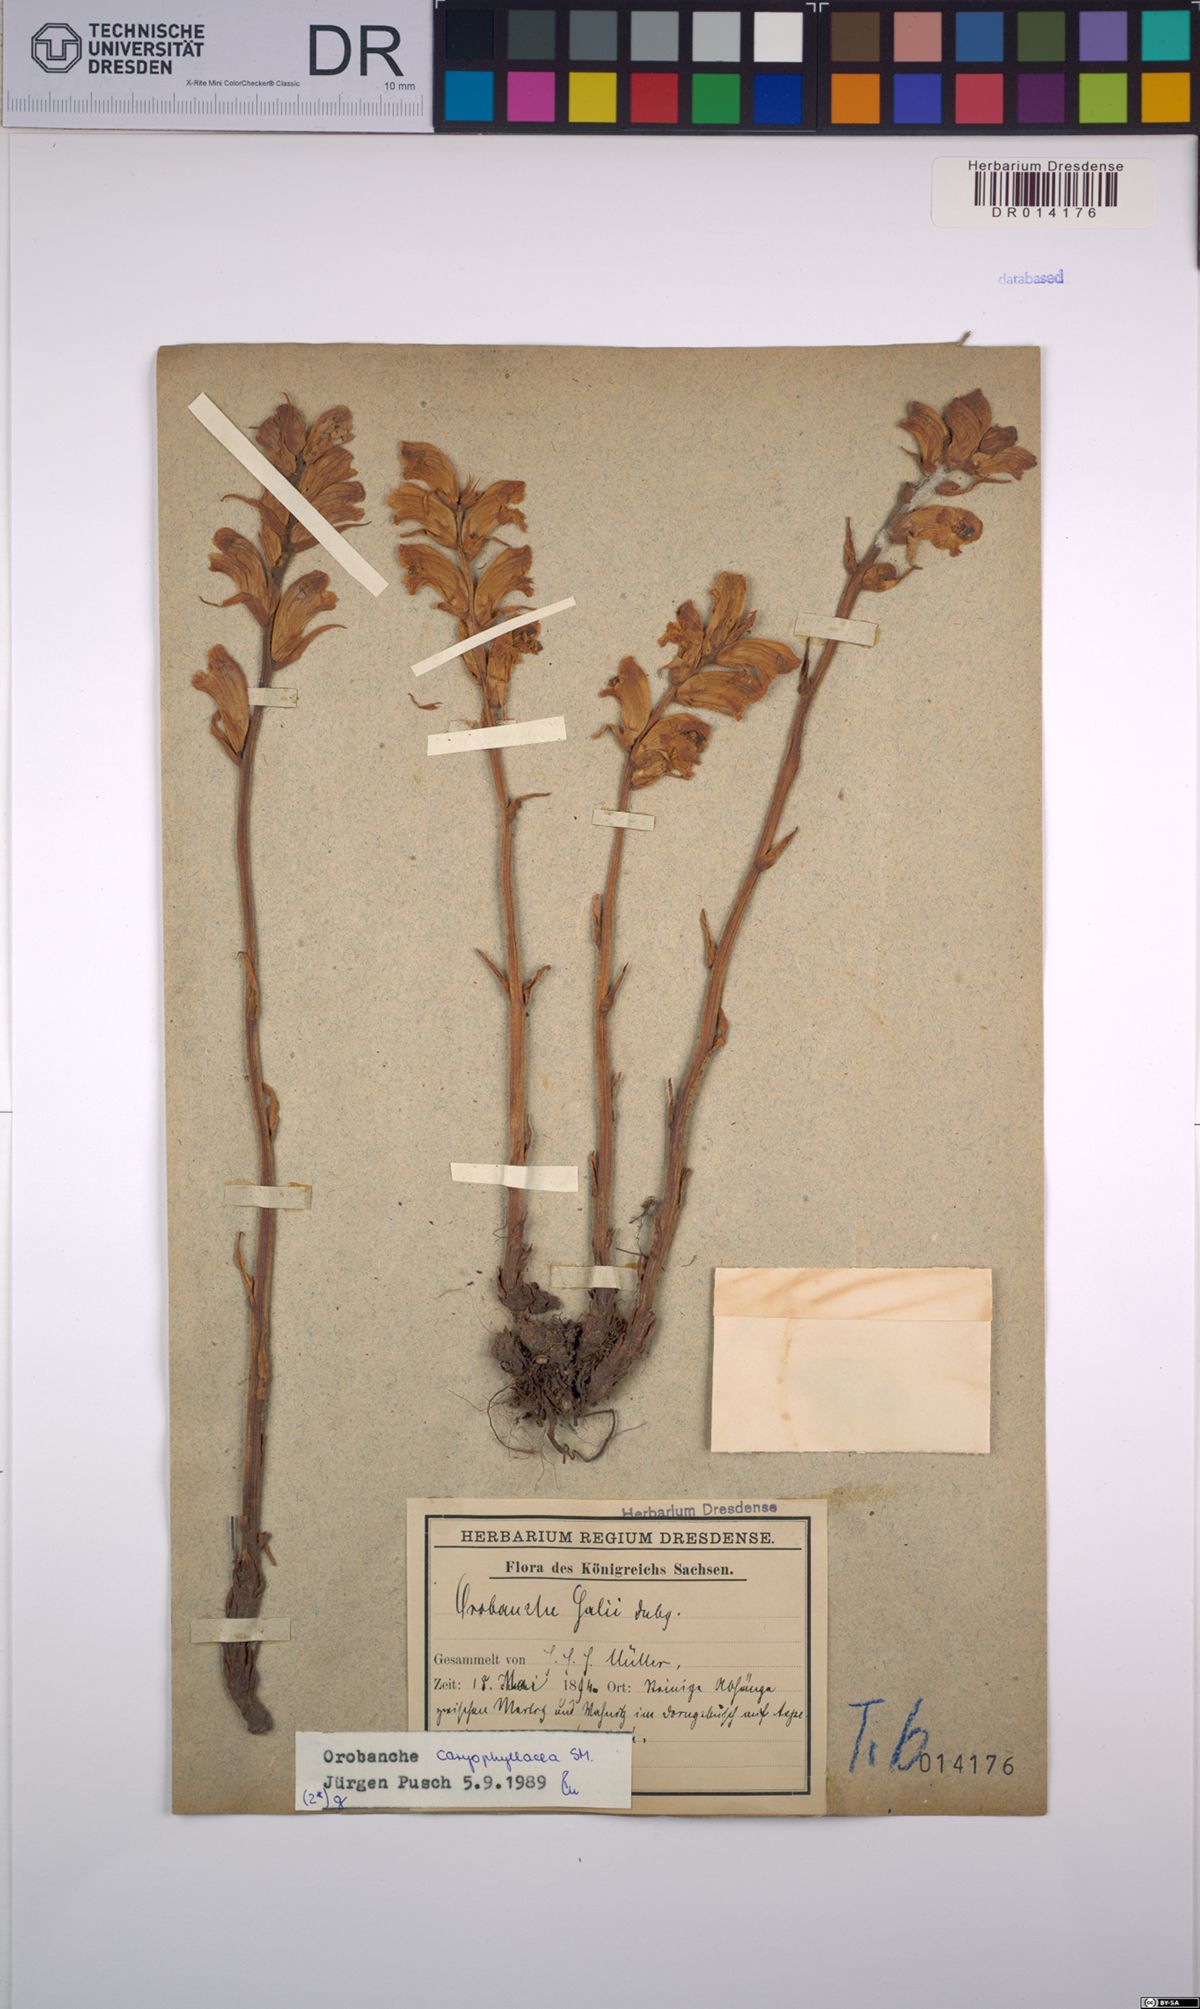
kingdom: Plantae
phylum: Tracheophyta
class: Magnoliopsida
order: Lamiales
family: Orobanchaceae
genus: Orobanche
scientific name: Orobanche caryophyllacea
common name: Bedstraw broomrape
